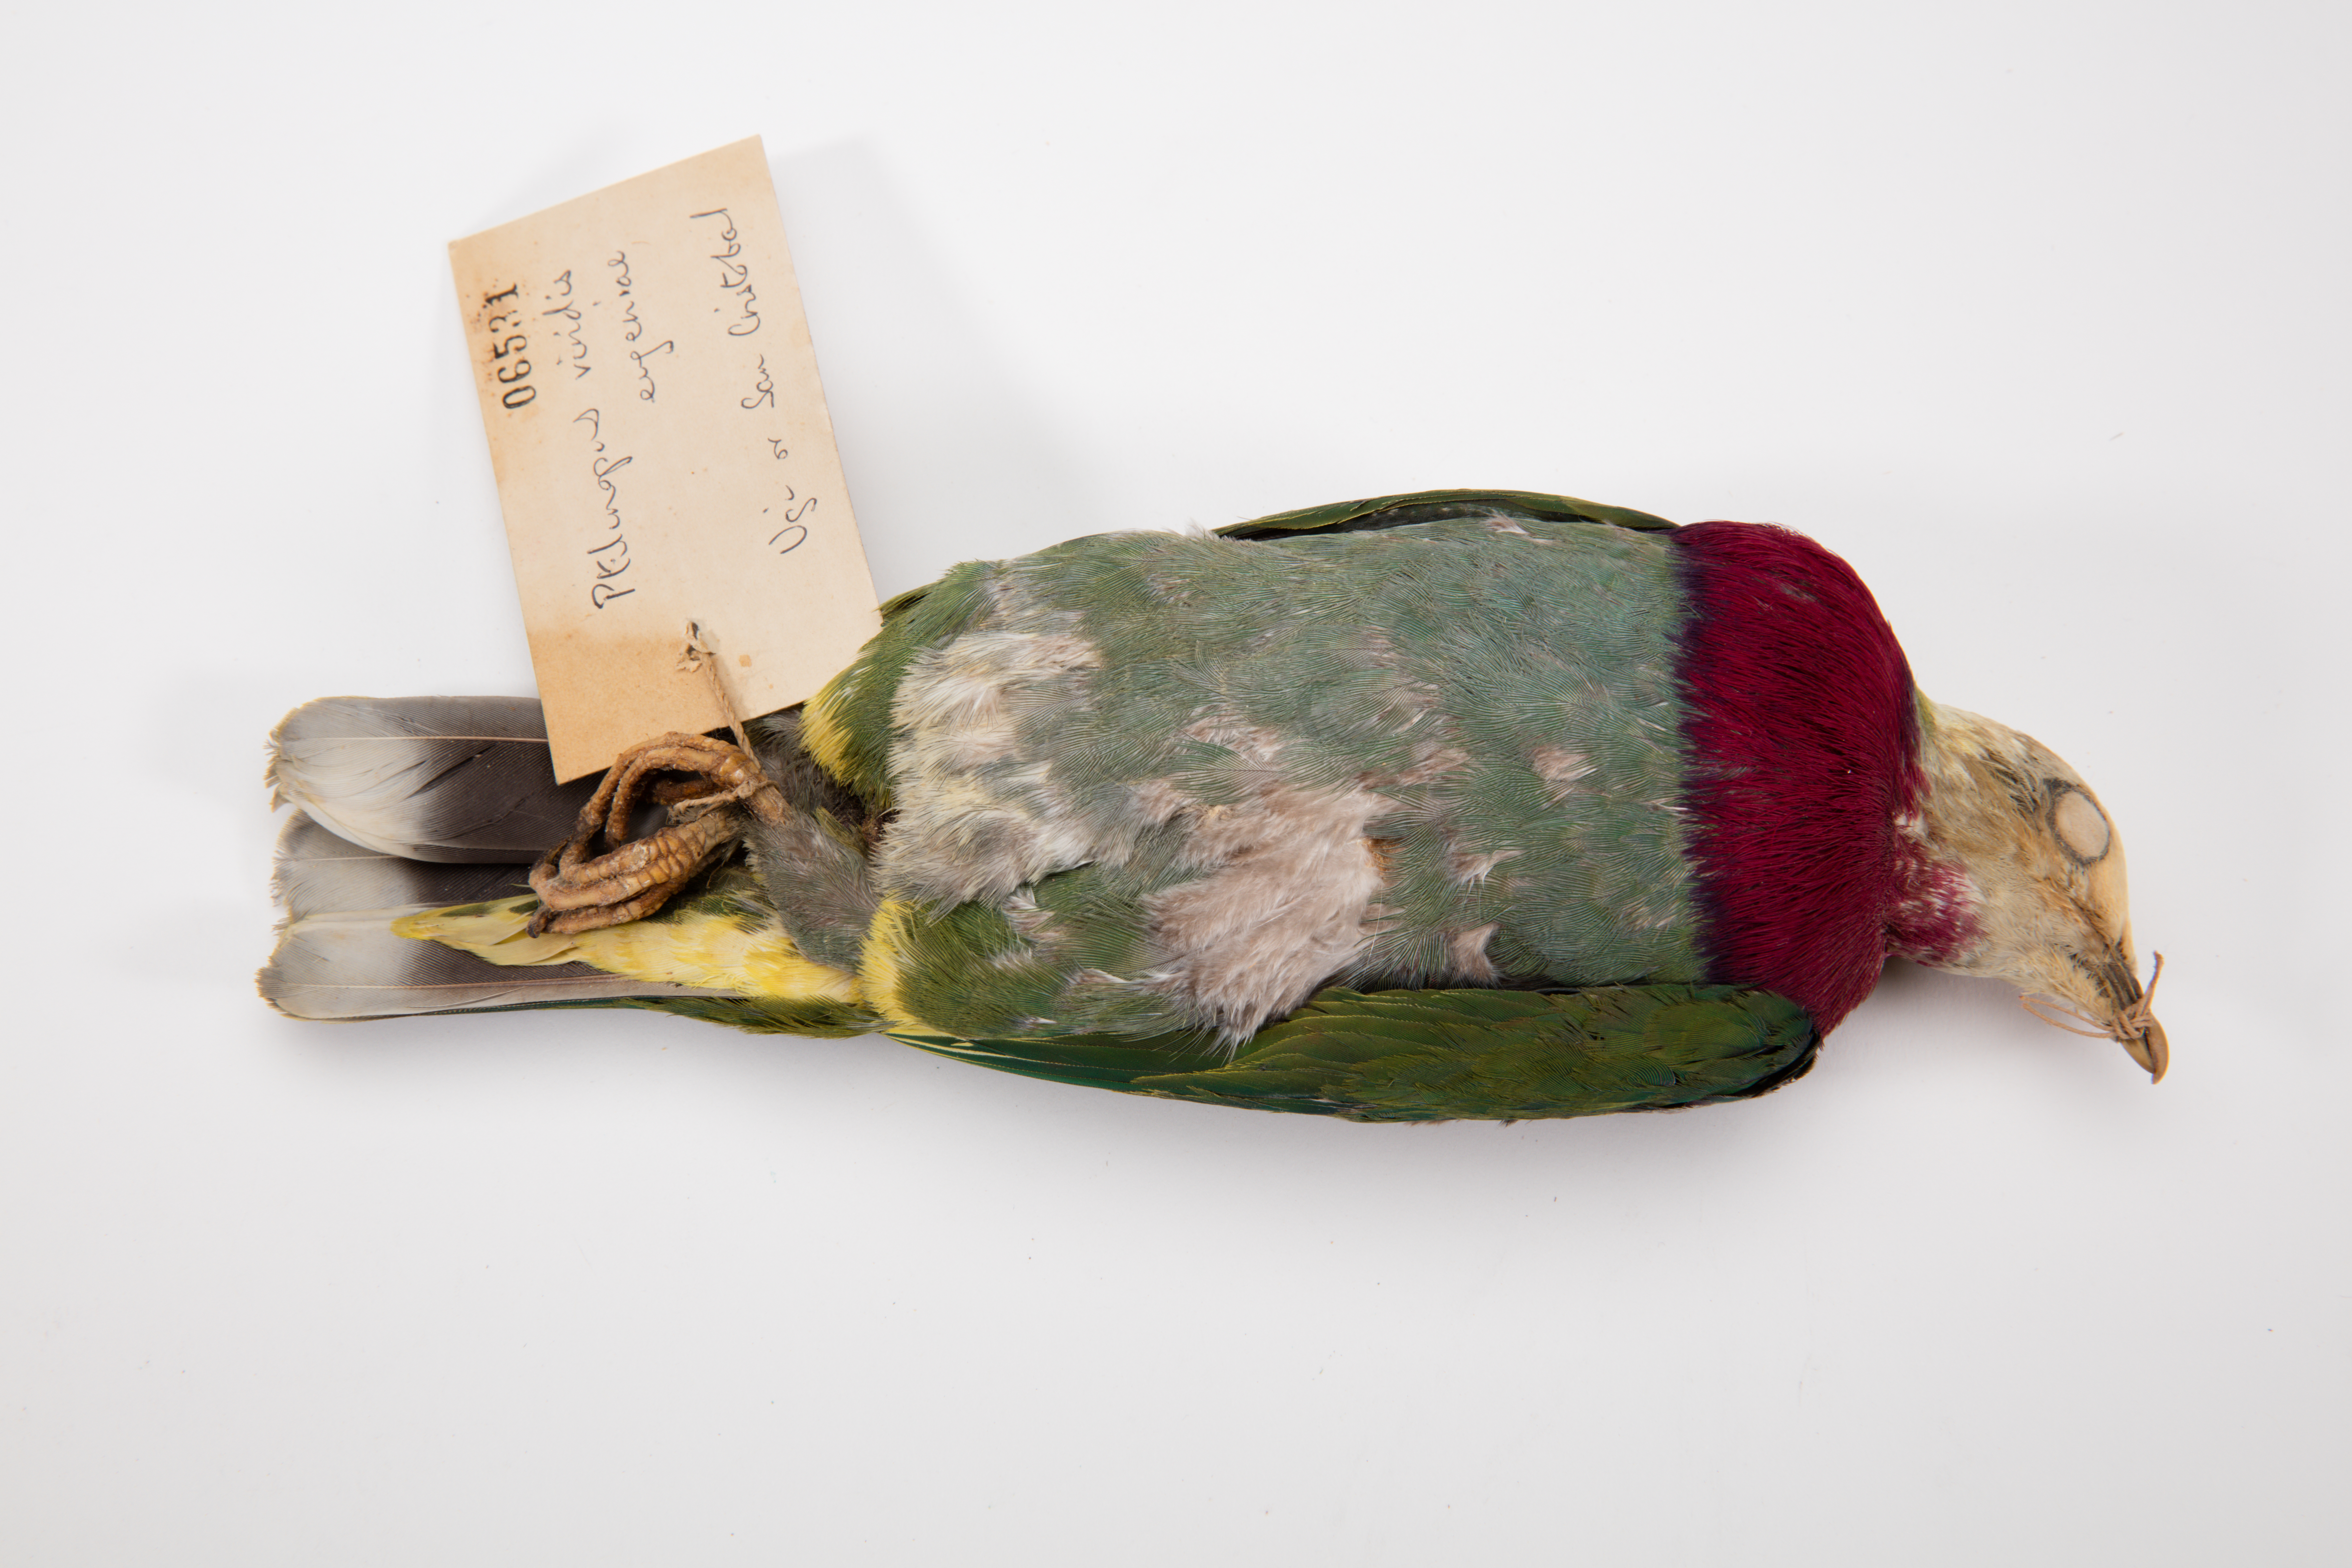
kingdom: Animalia
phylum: Chordata
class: Aves
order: Columbiformes
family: Columbidae
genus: Ptilinopus
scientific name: Ptilinopus viridis
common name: Claret-breasted fruit dove
